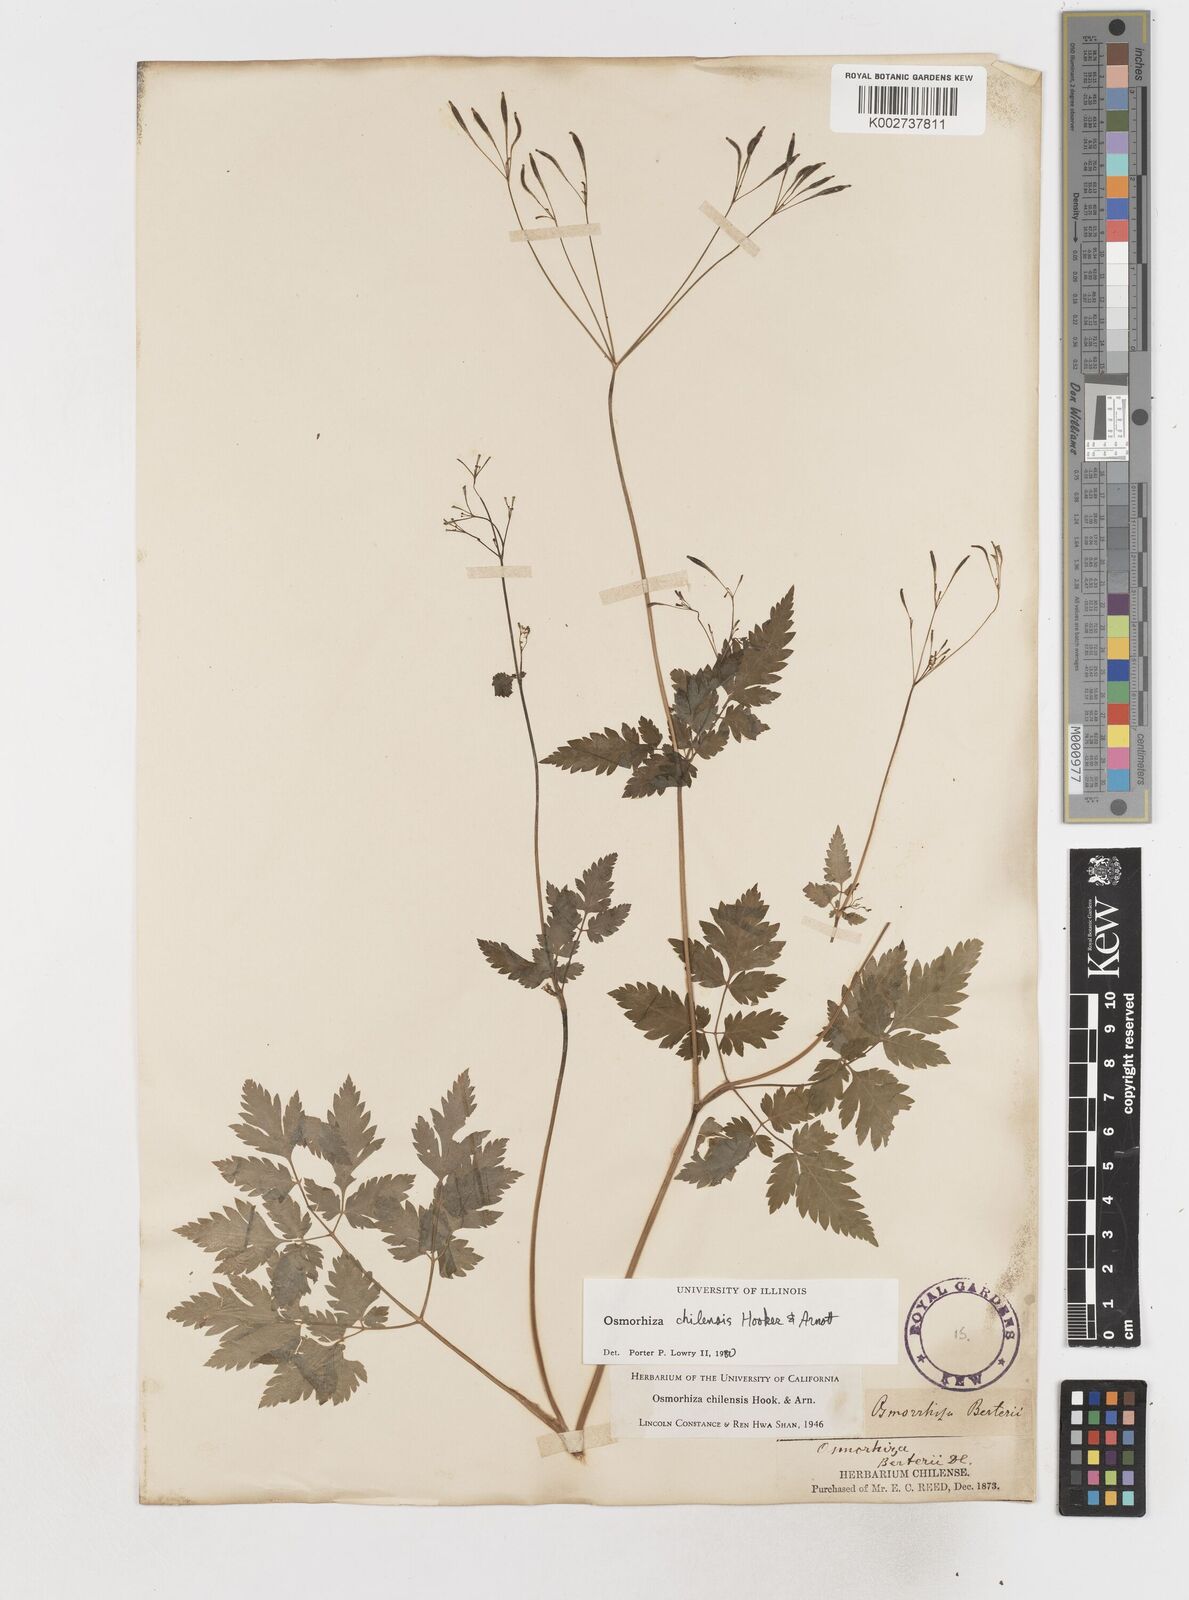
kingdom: Plantae
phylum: Tracheophyta
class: Magnoliopsida
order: Apiales
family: Apiaceae
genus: Osmorhiza
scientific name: Osmorhiza berteroi
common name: Mountain sweet cicely
